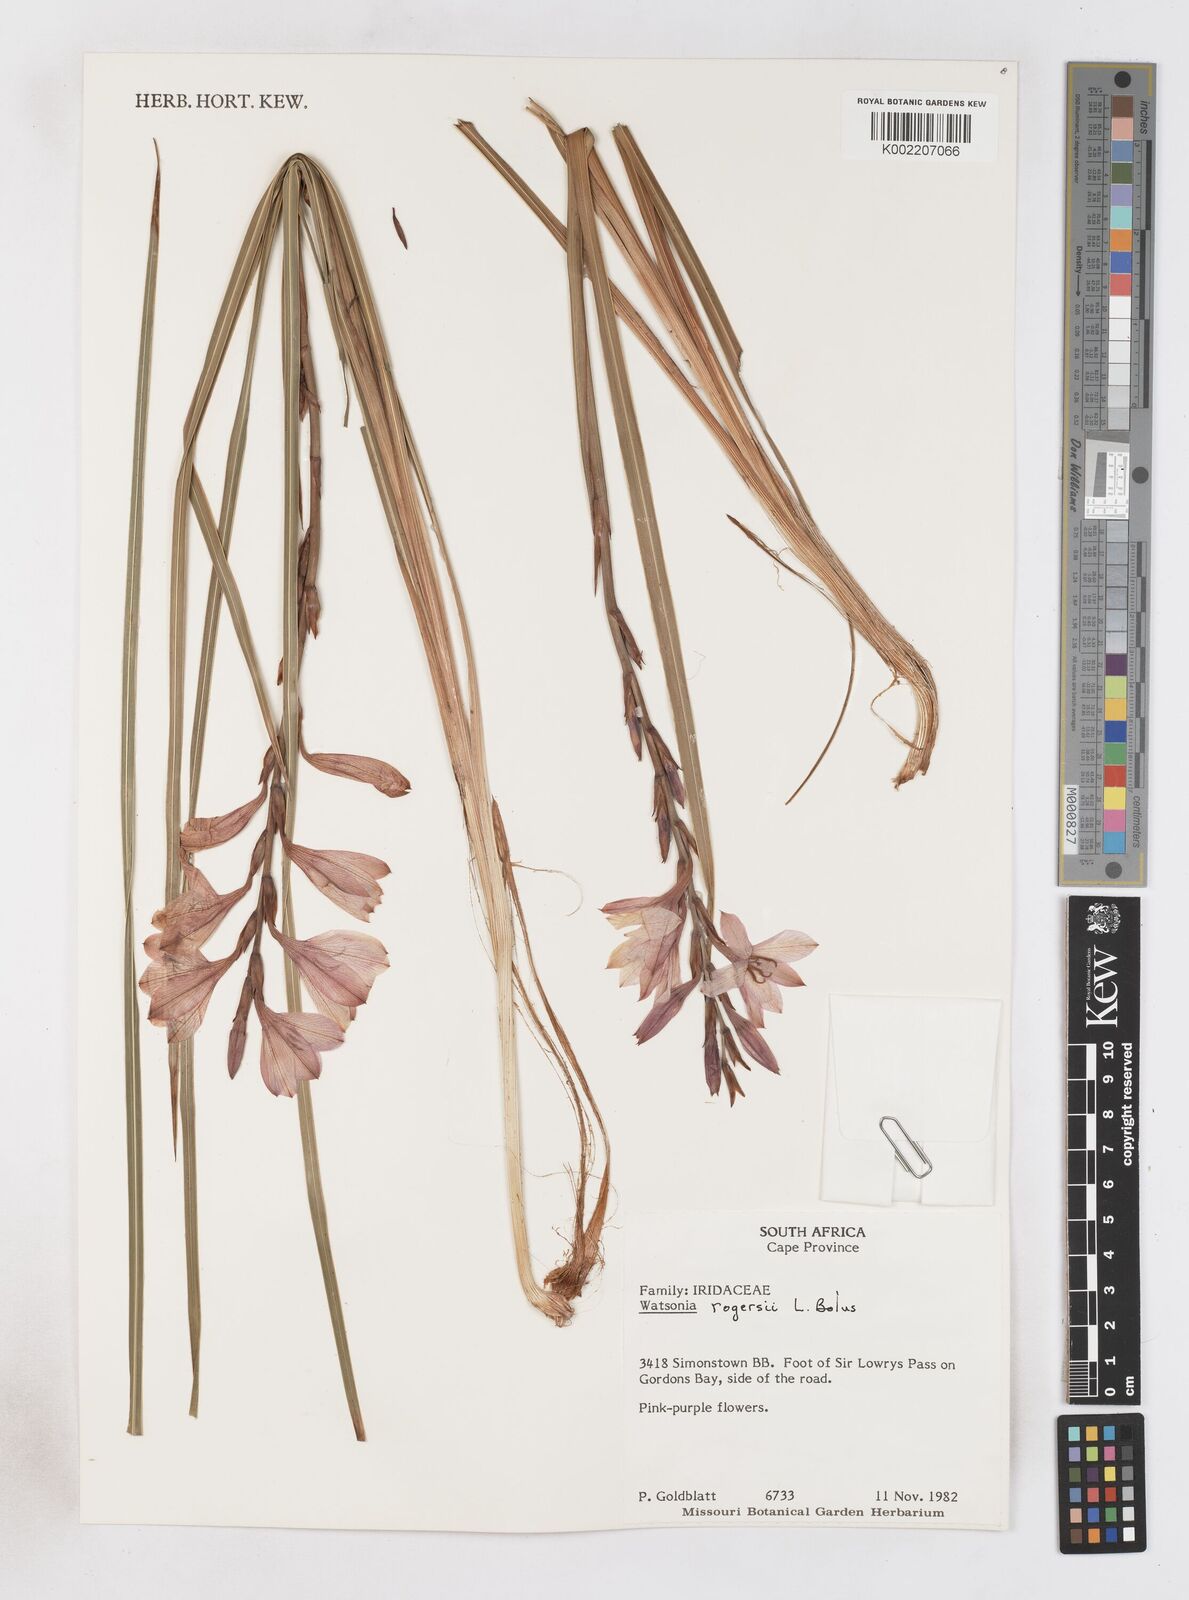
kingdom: Plantae
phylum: Tracheophyta
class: Liliopsida
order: Asparagales
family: Iridaceae
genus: Watsonia
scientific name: Watsonia rogersii
